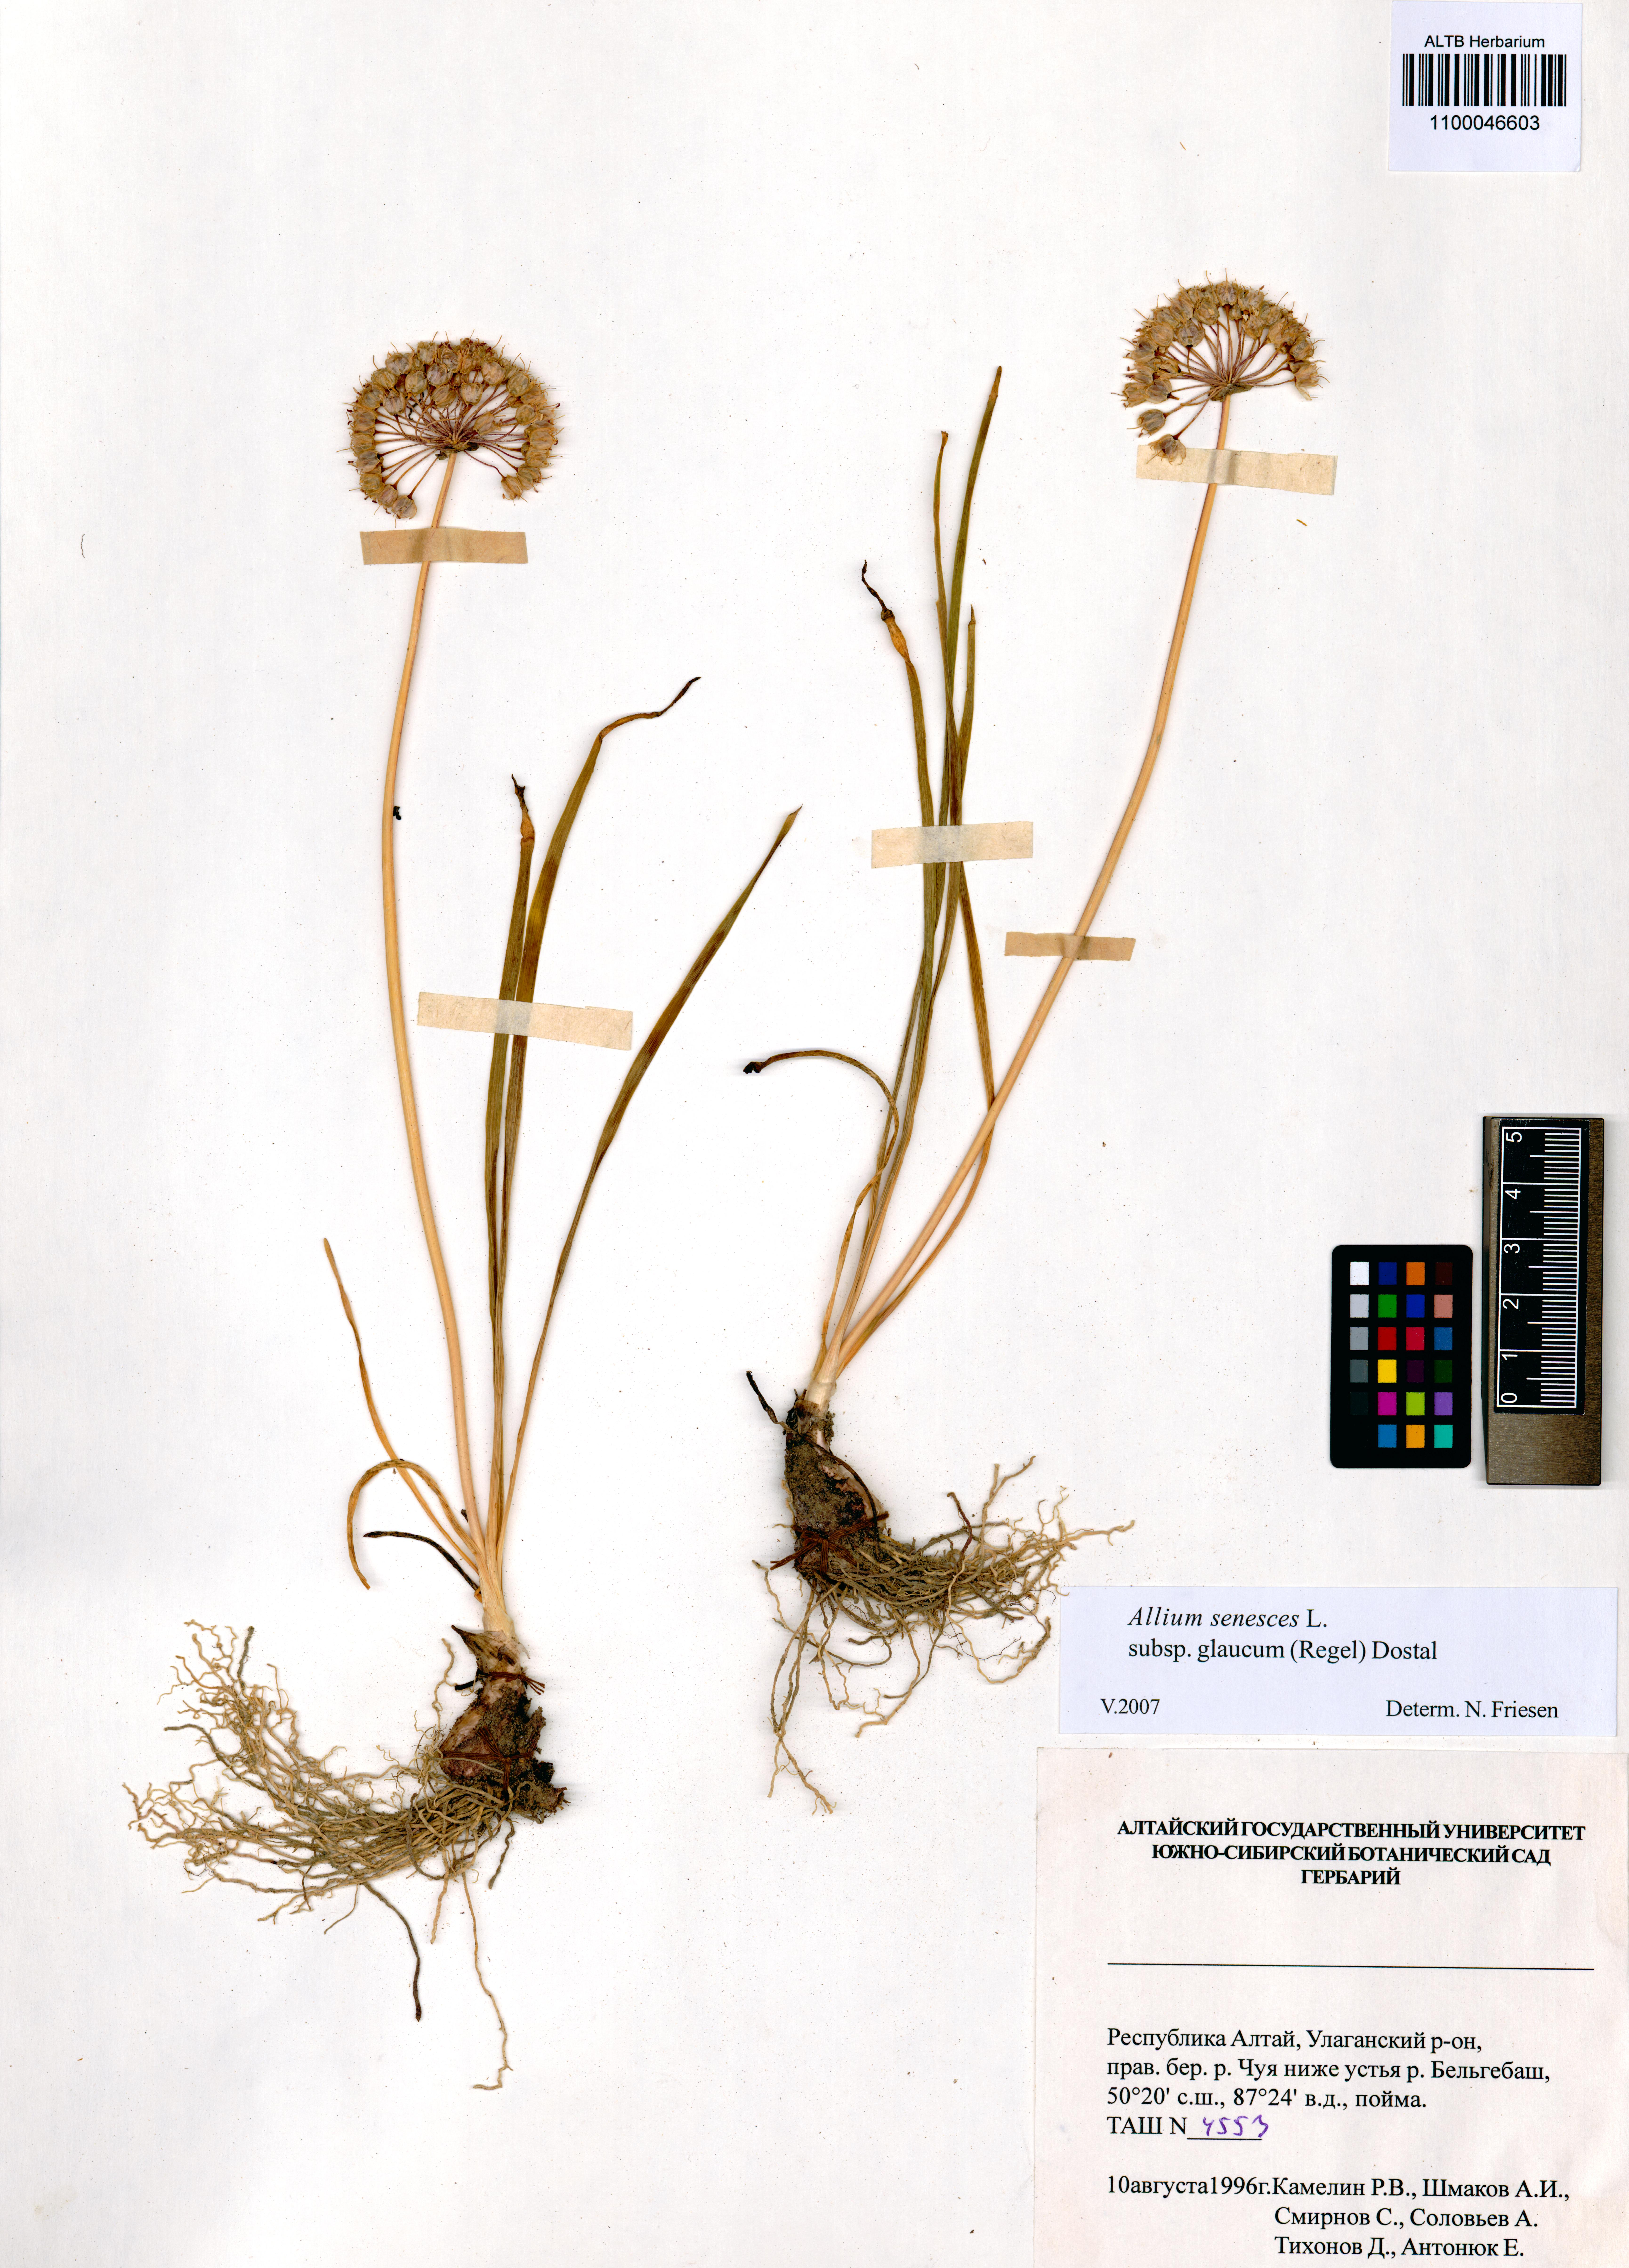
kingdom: Plantae
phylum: Tracheophyta
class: Liliopsida
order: Asparagales
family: Amaryllidaceae
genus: Allium
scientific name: Allium senescens
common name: German garlic
